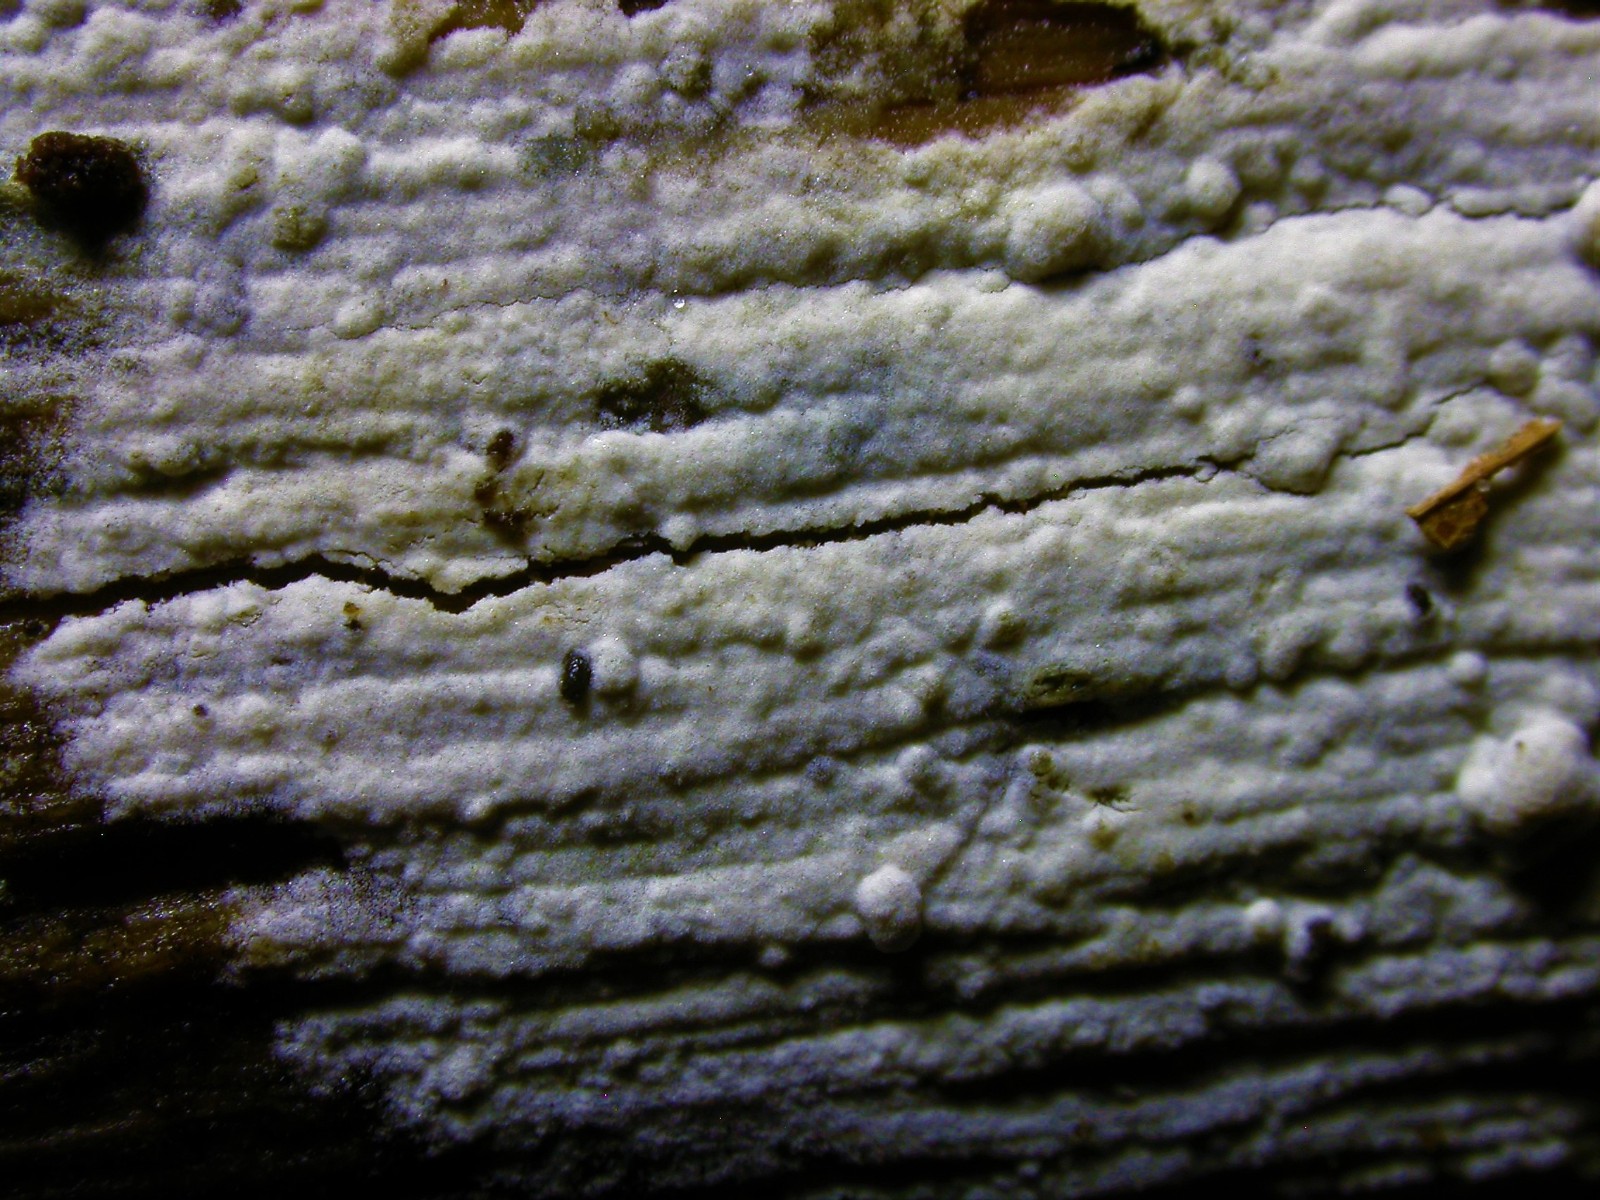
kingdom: Fungi
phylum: Basidiomycota
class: Agaricomycetes
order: Cantharellales
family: Botryobasidiaceae
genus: Botryobasidium
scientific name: Botryobasidium subcoronatum
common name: almindelig spindhinde
